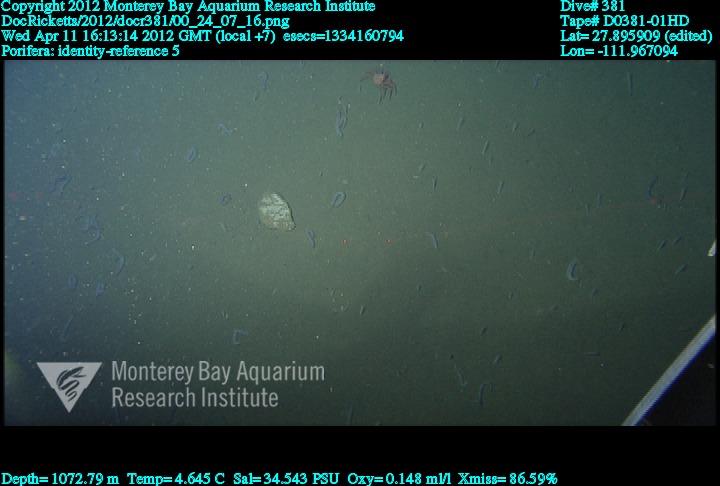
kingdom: Animalia
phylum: Porifera
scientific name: Porifera
